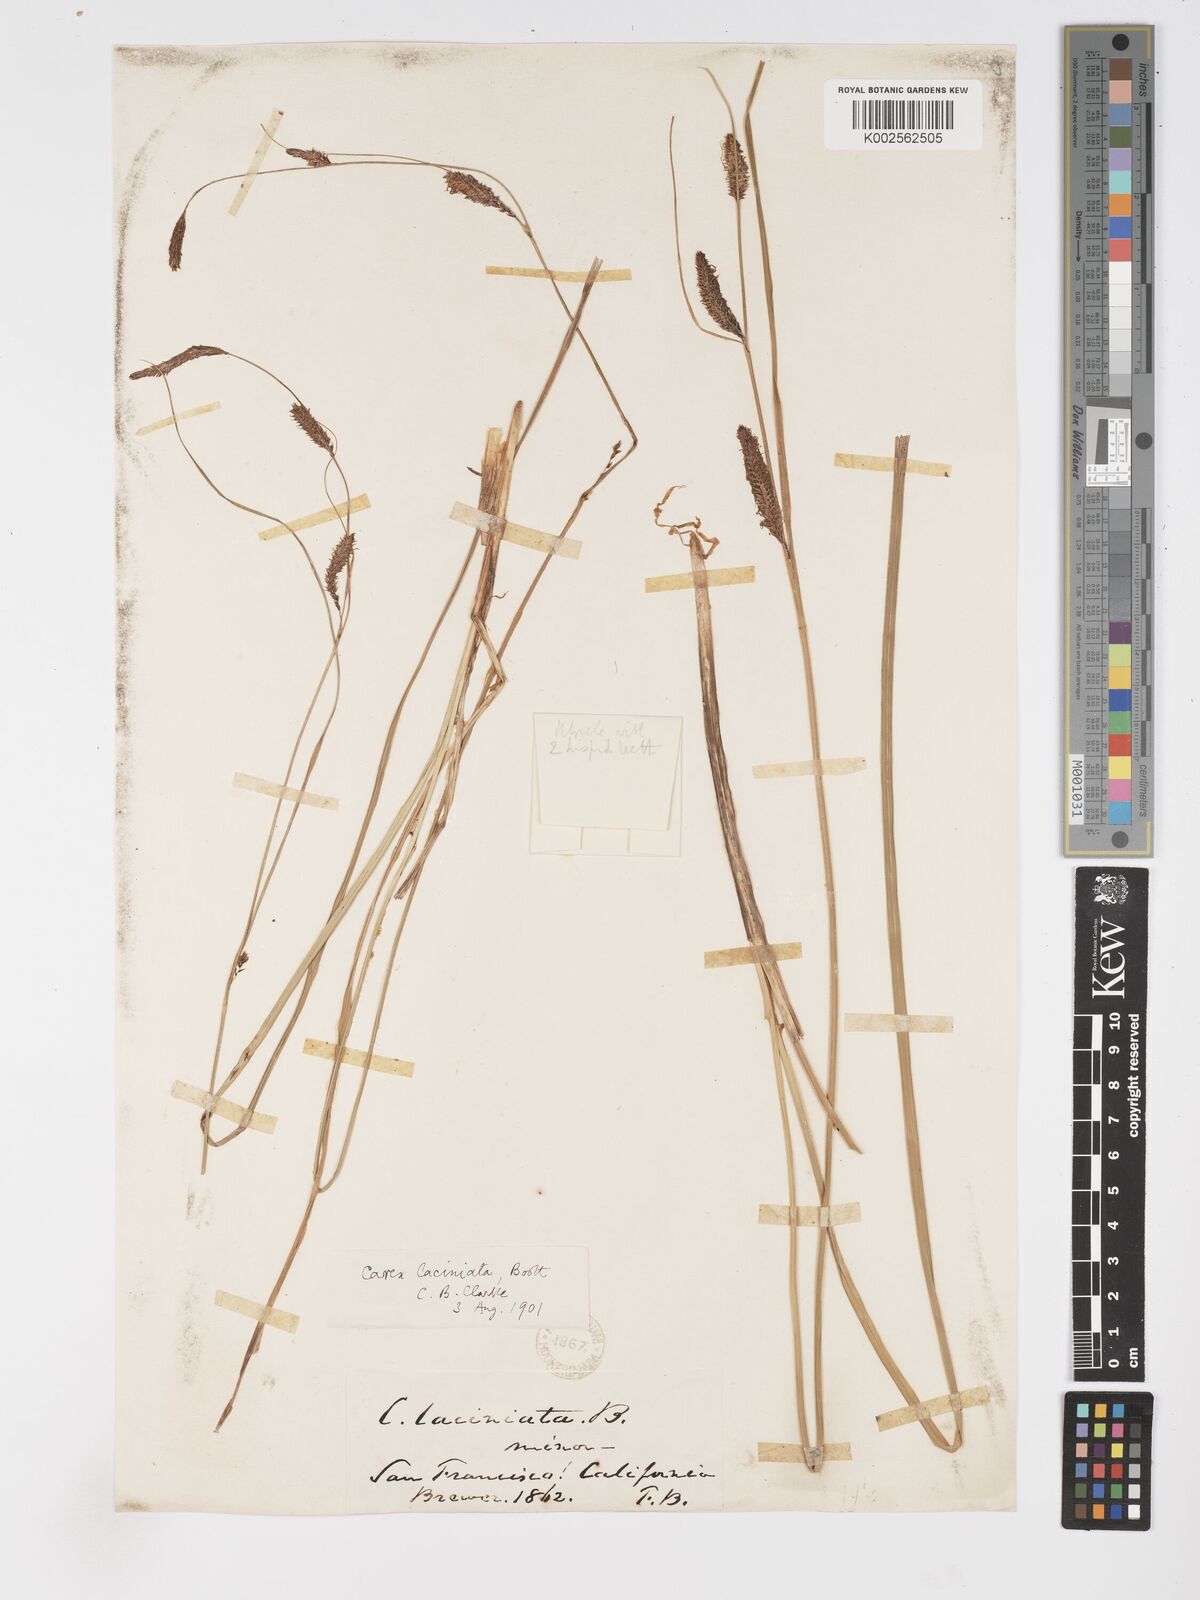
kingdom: Plantae
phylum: Tracheophyta
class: Liliopsida
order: Poales
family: Cyperaceae
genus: Carex
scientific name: Carex barbarae
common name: Santa barbara sedge
